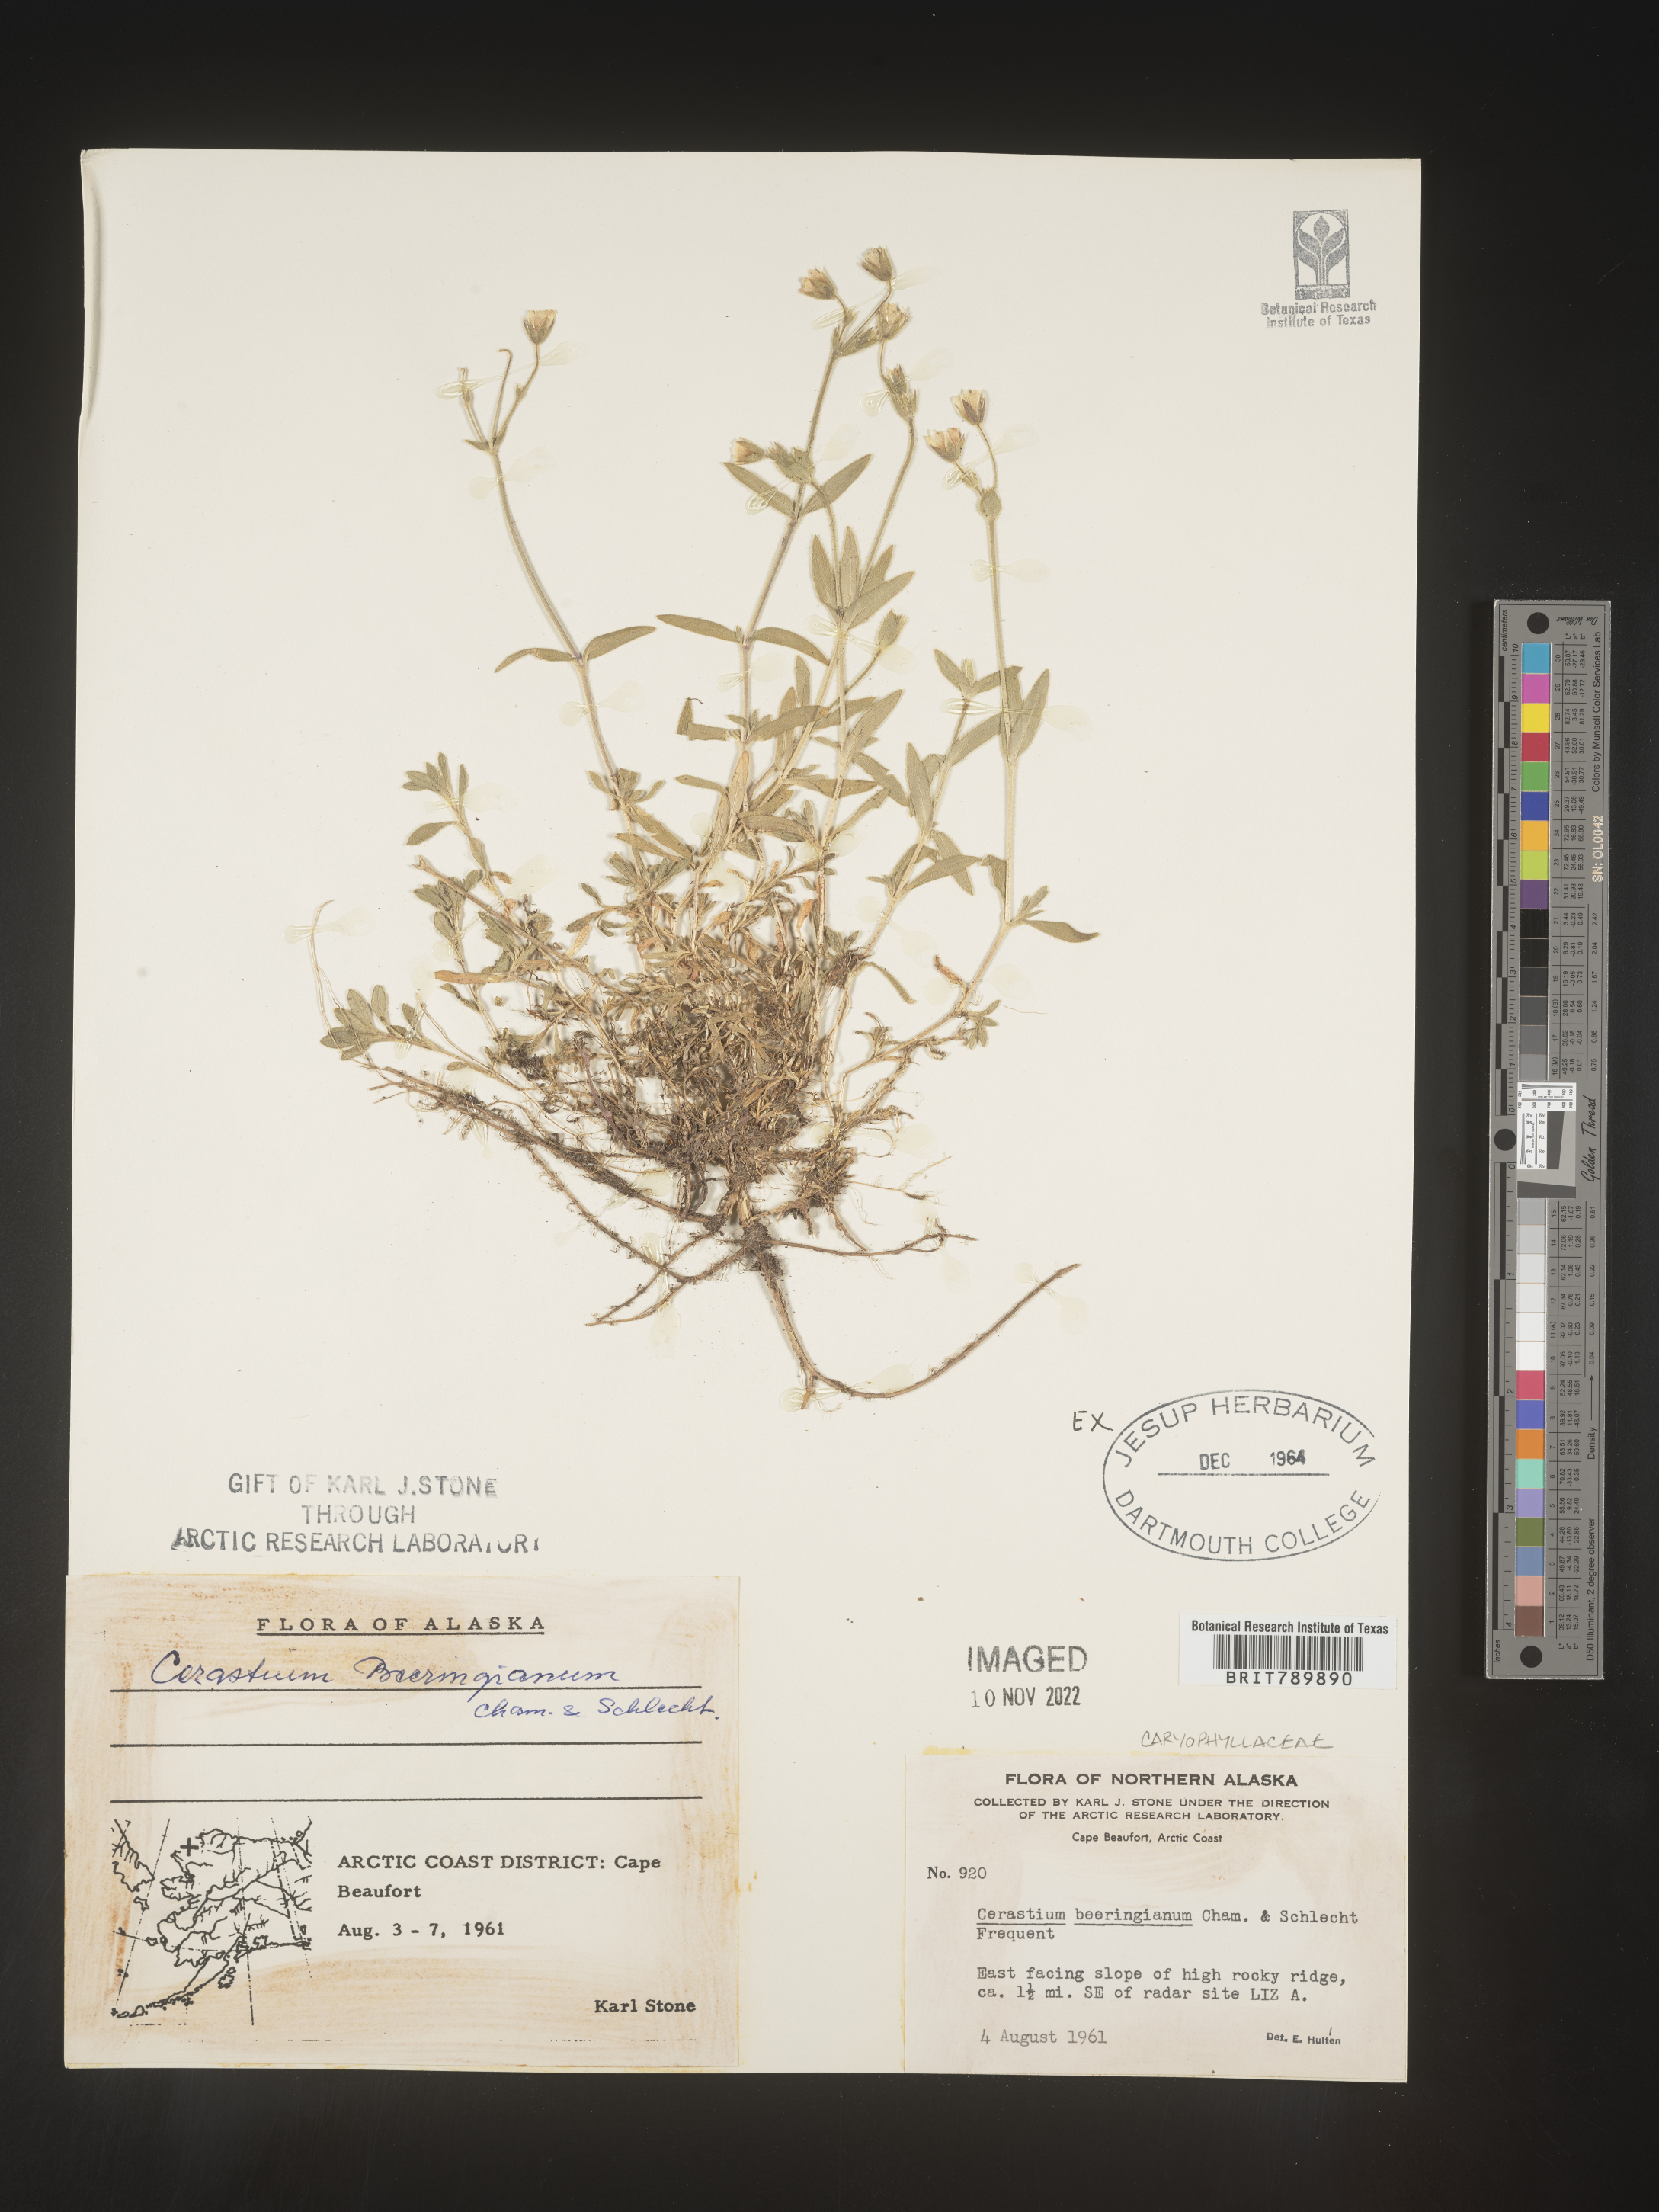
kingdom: Plantae
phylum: Tracheophyta
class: Magnoliopsida
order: Caryophyllales
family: Caryophyllaceae
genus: Cerastium
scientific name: Cerastium beeringianum
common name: Bering mouse-ear chickweed
